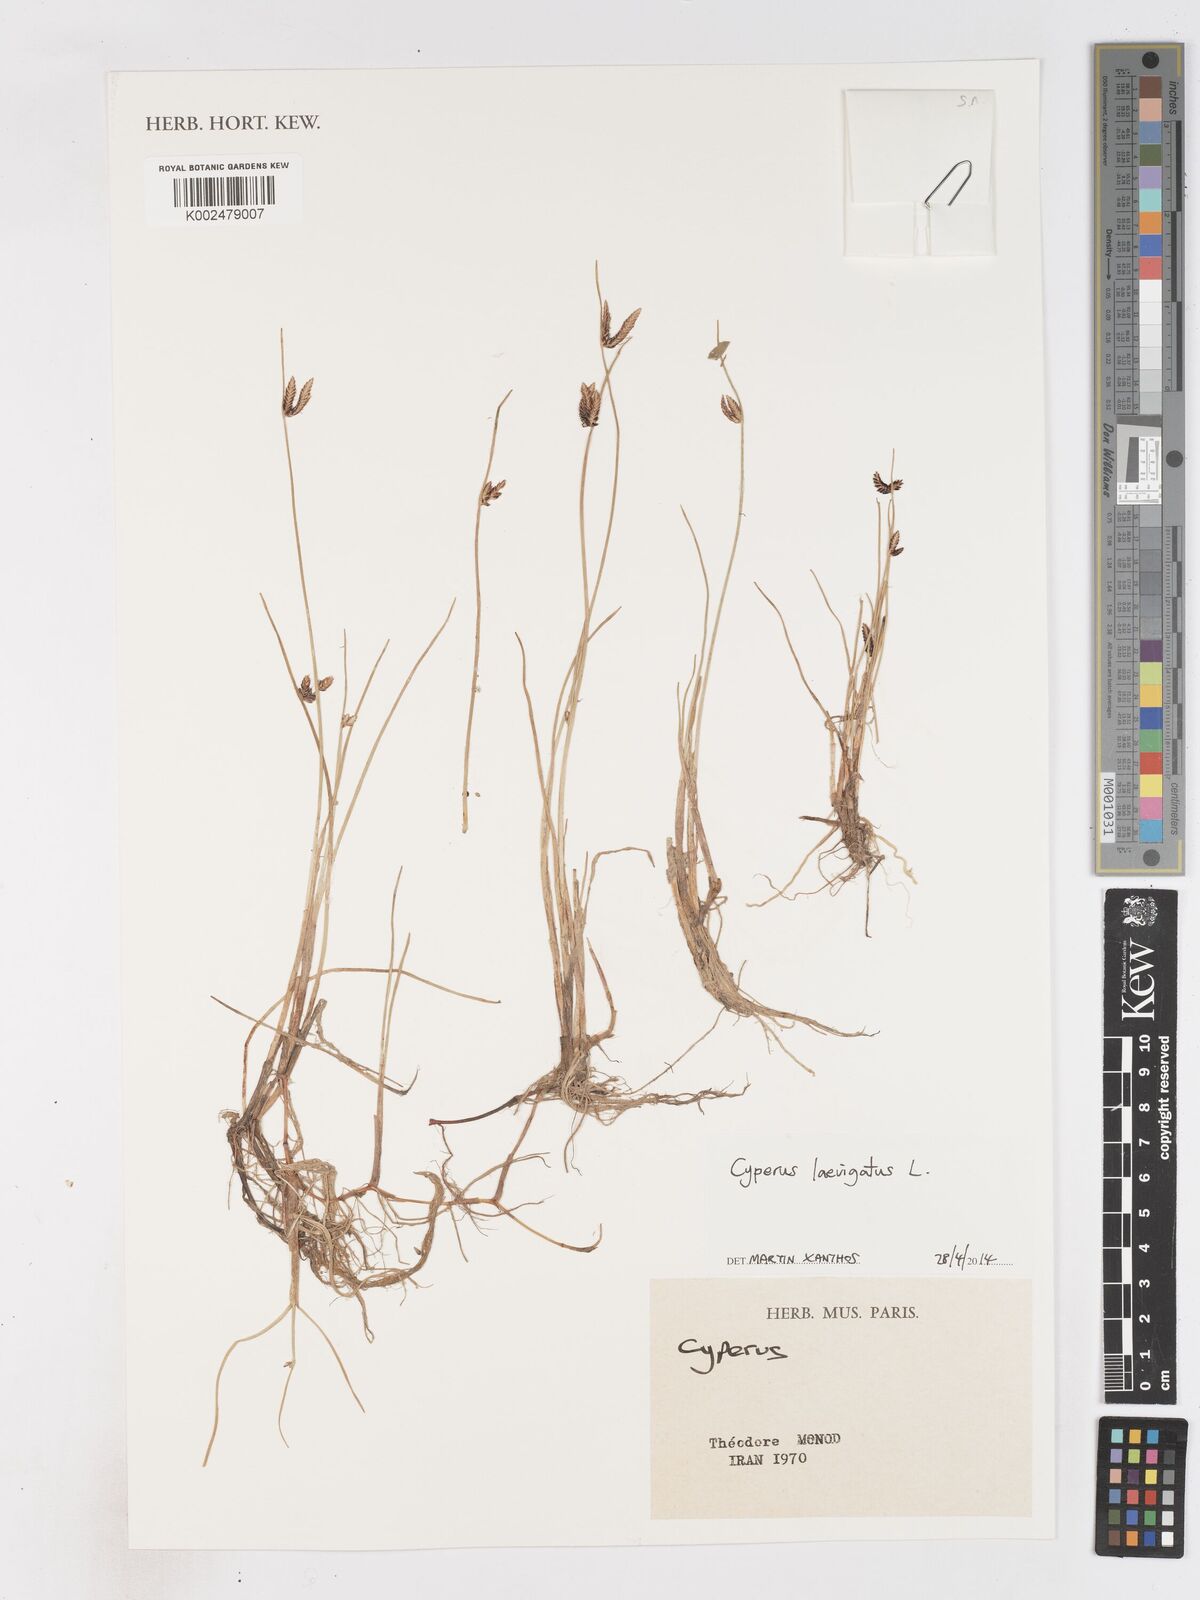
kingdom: Plantae
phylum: Tracheophyta
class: Liliopsida
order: Poales
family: Cyperaceae
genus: Cyperus
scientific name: Cyperus laevigatus
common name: Smooth flat sedge
